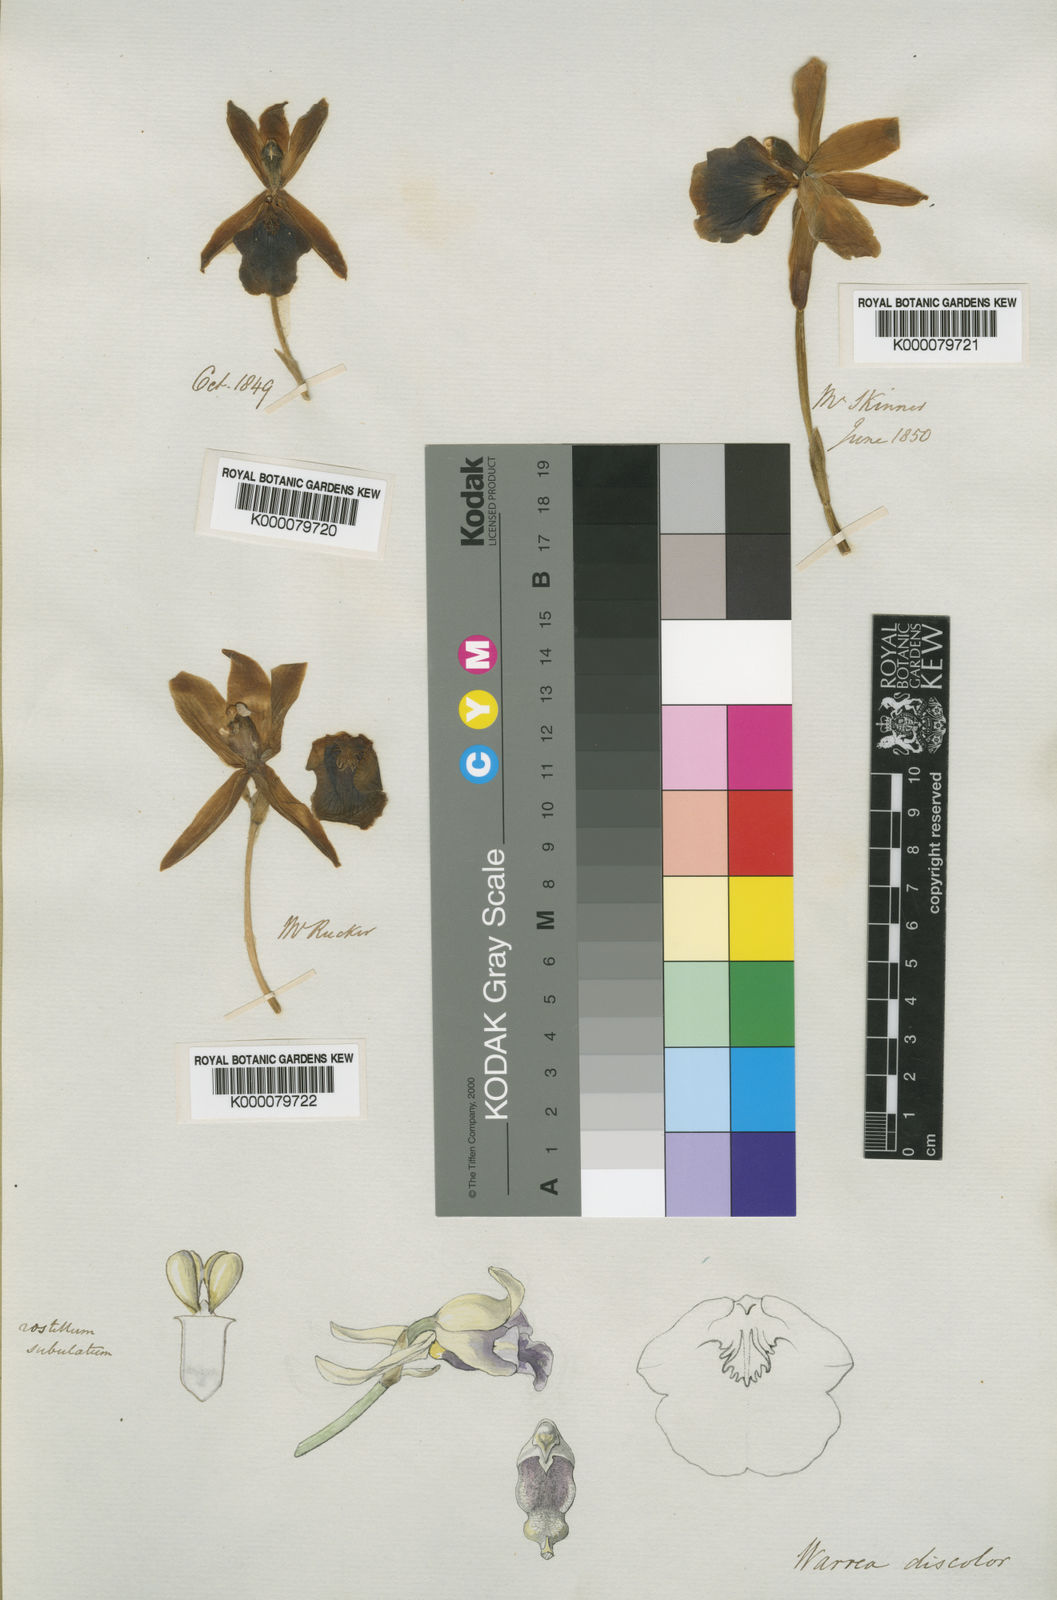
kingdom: Plantae
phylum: Tracheophyta
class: Liliopsida
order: Asparagales
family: Orchidaceae
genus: Warczewiczella
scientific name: Warczewiczella discolor
